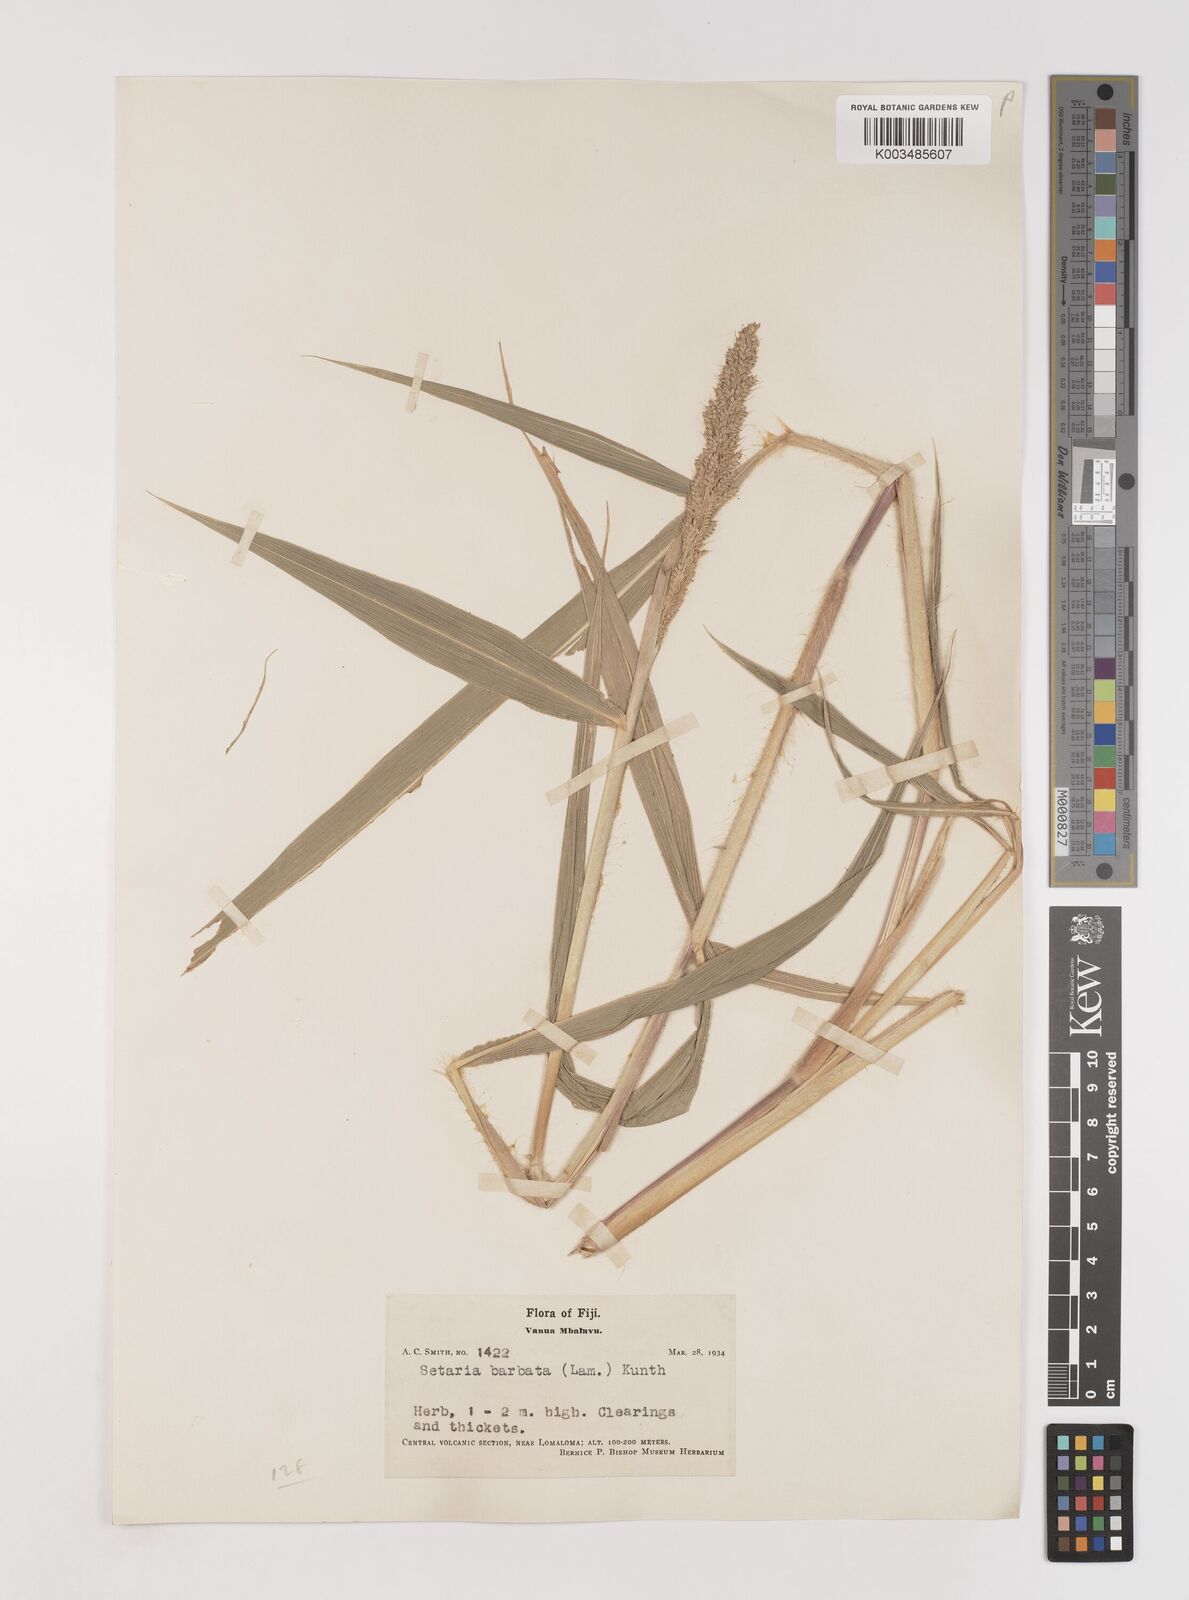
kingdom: Plantae
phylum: Tracheophyta
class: Liliopsida
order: Poales
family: Poaceae
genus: Setaria
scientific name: Setaria barbata
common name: East indian bristlegrass
